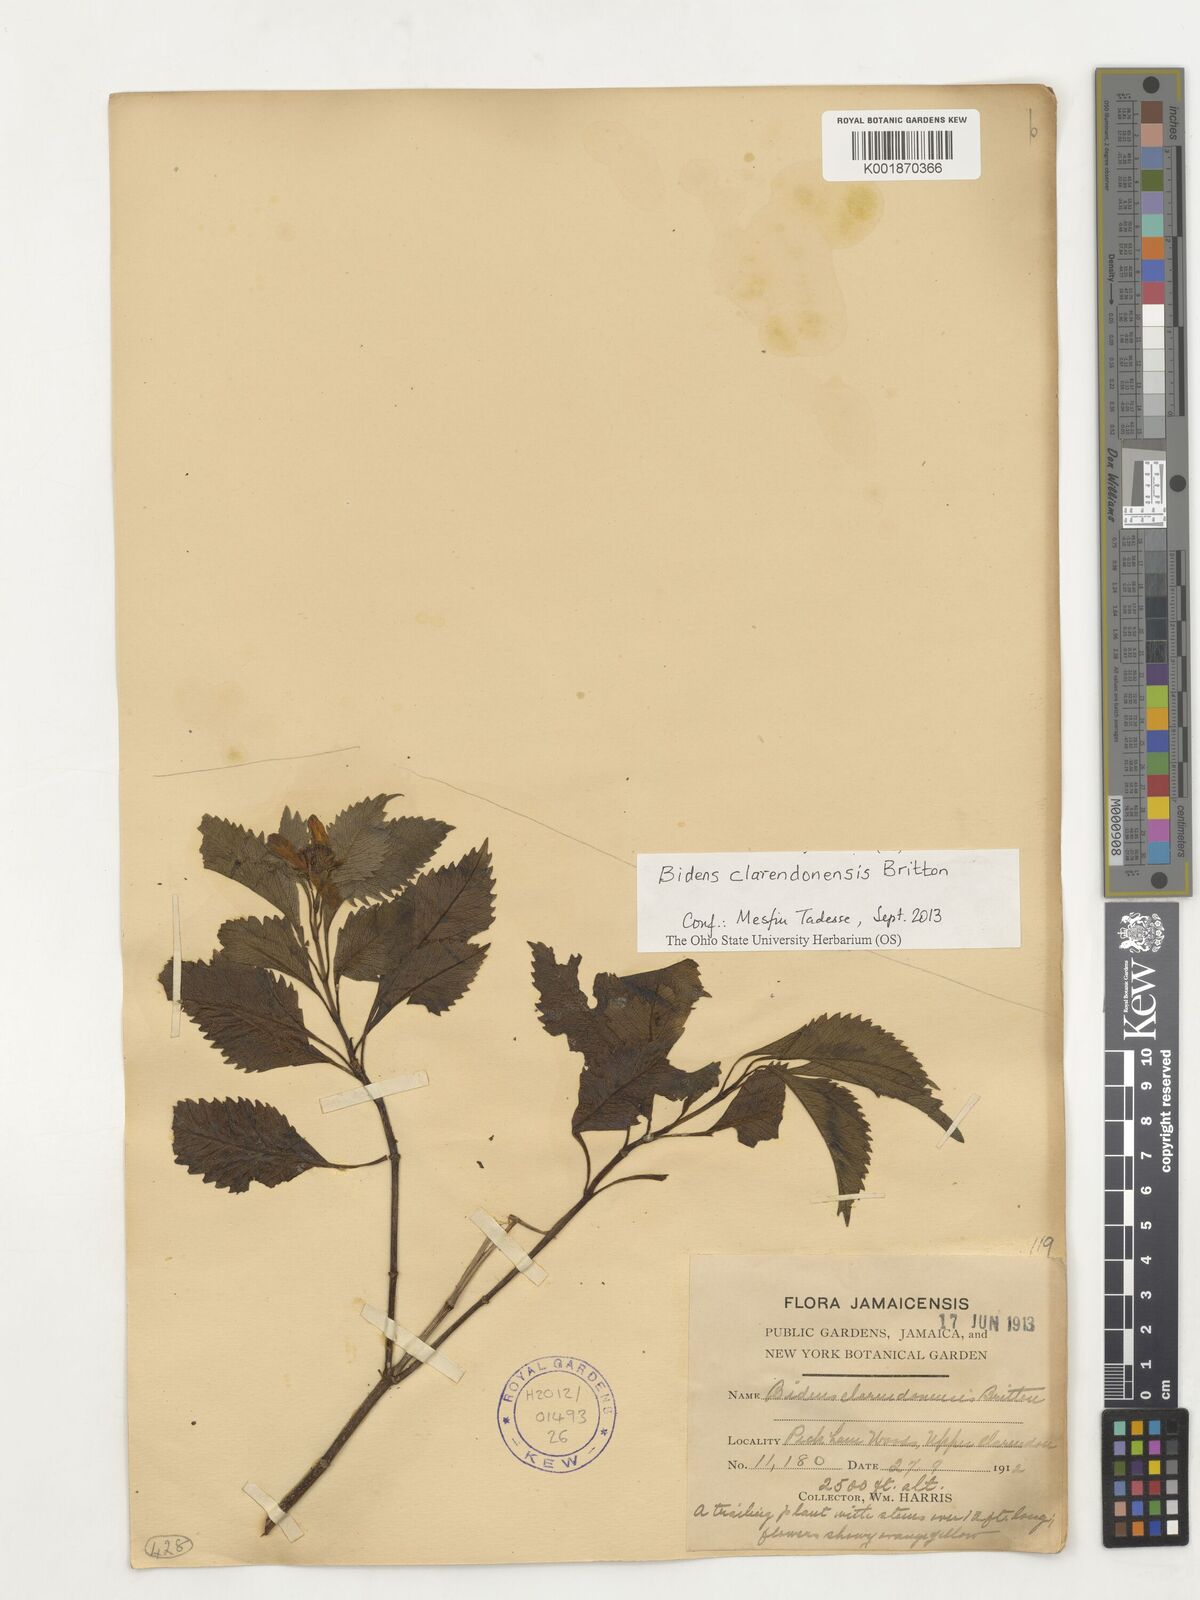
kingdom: Plantae
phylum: Tracheophyta
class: Magnoliopsida
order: Asterales
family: Asteraceae
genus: Bidens
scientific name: Bidens clarendonensis
